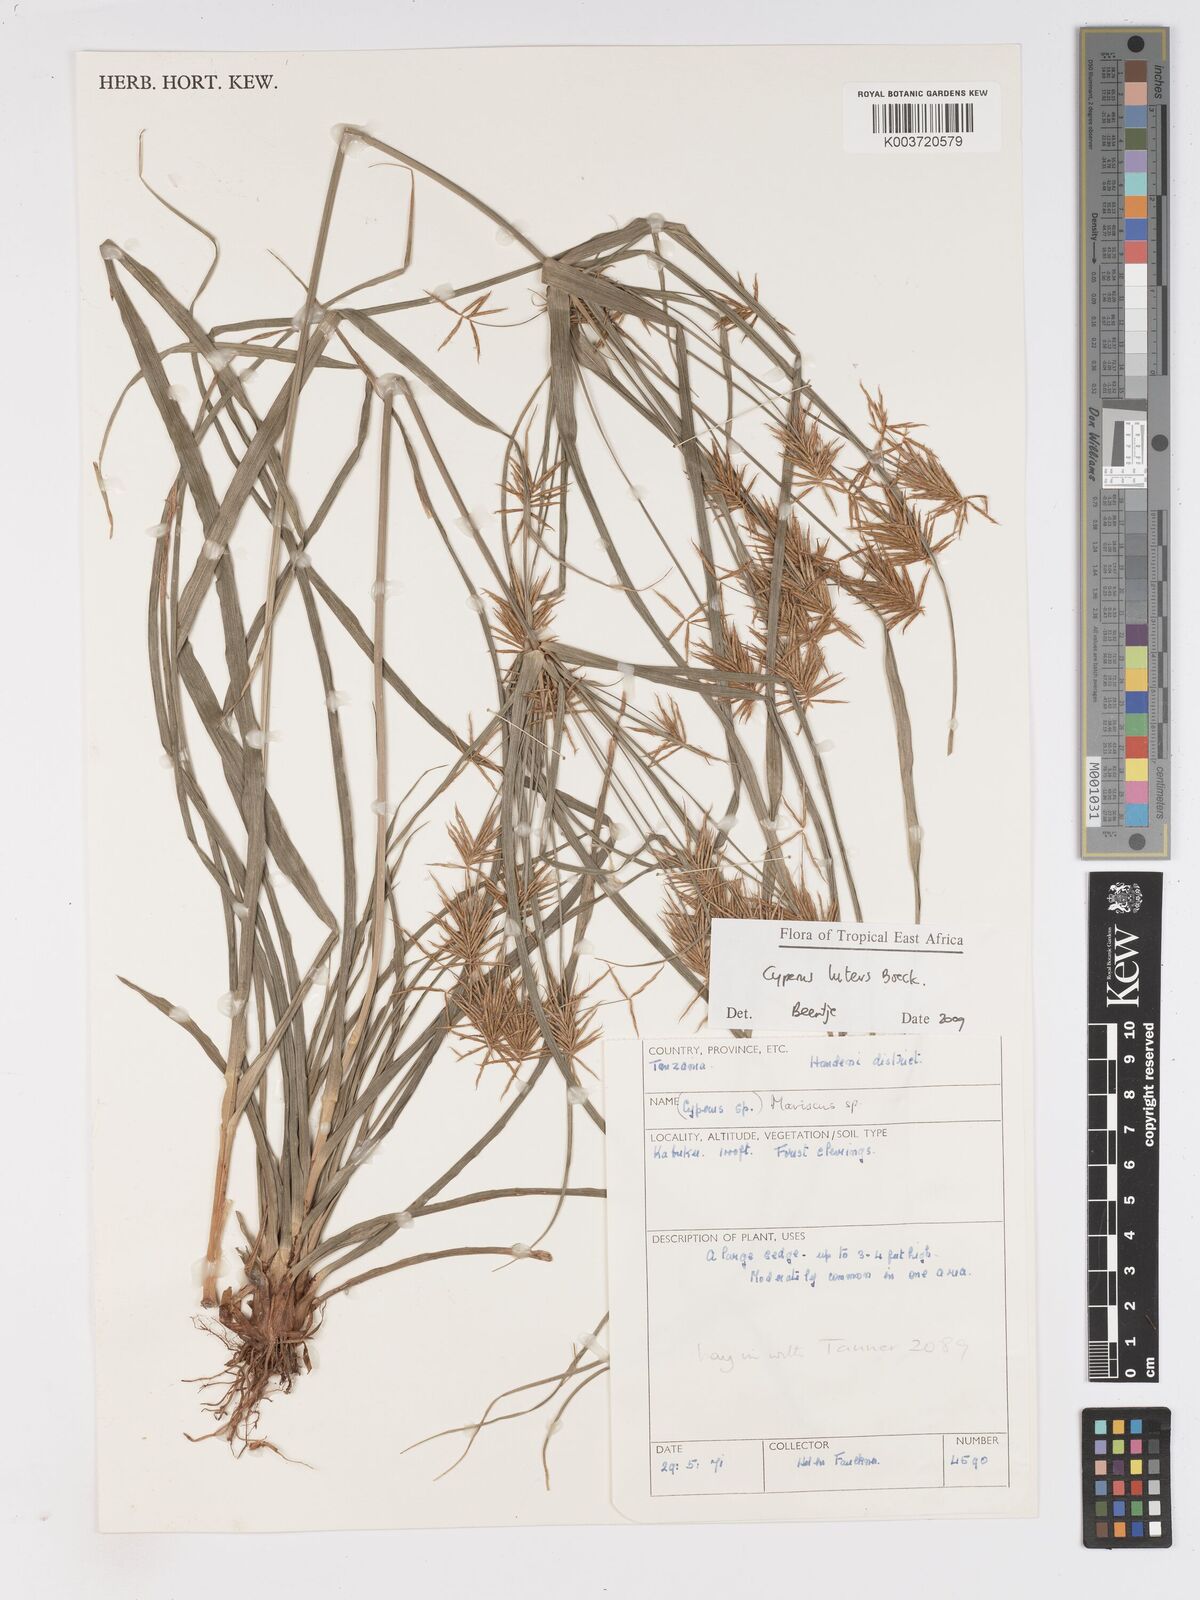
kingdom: Plantae
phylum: Tracheophyta
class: Liliopsida
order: Poales
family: Cyperaceae
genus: Cyperus
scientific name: Cyperus luteus
